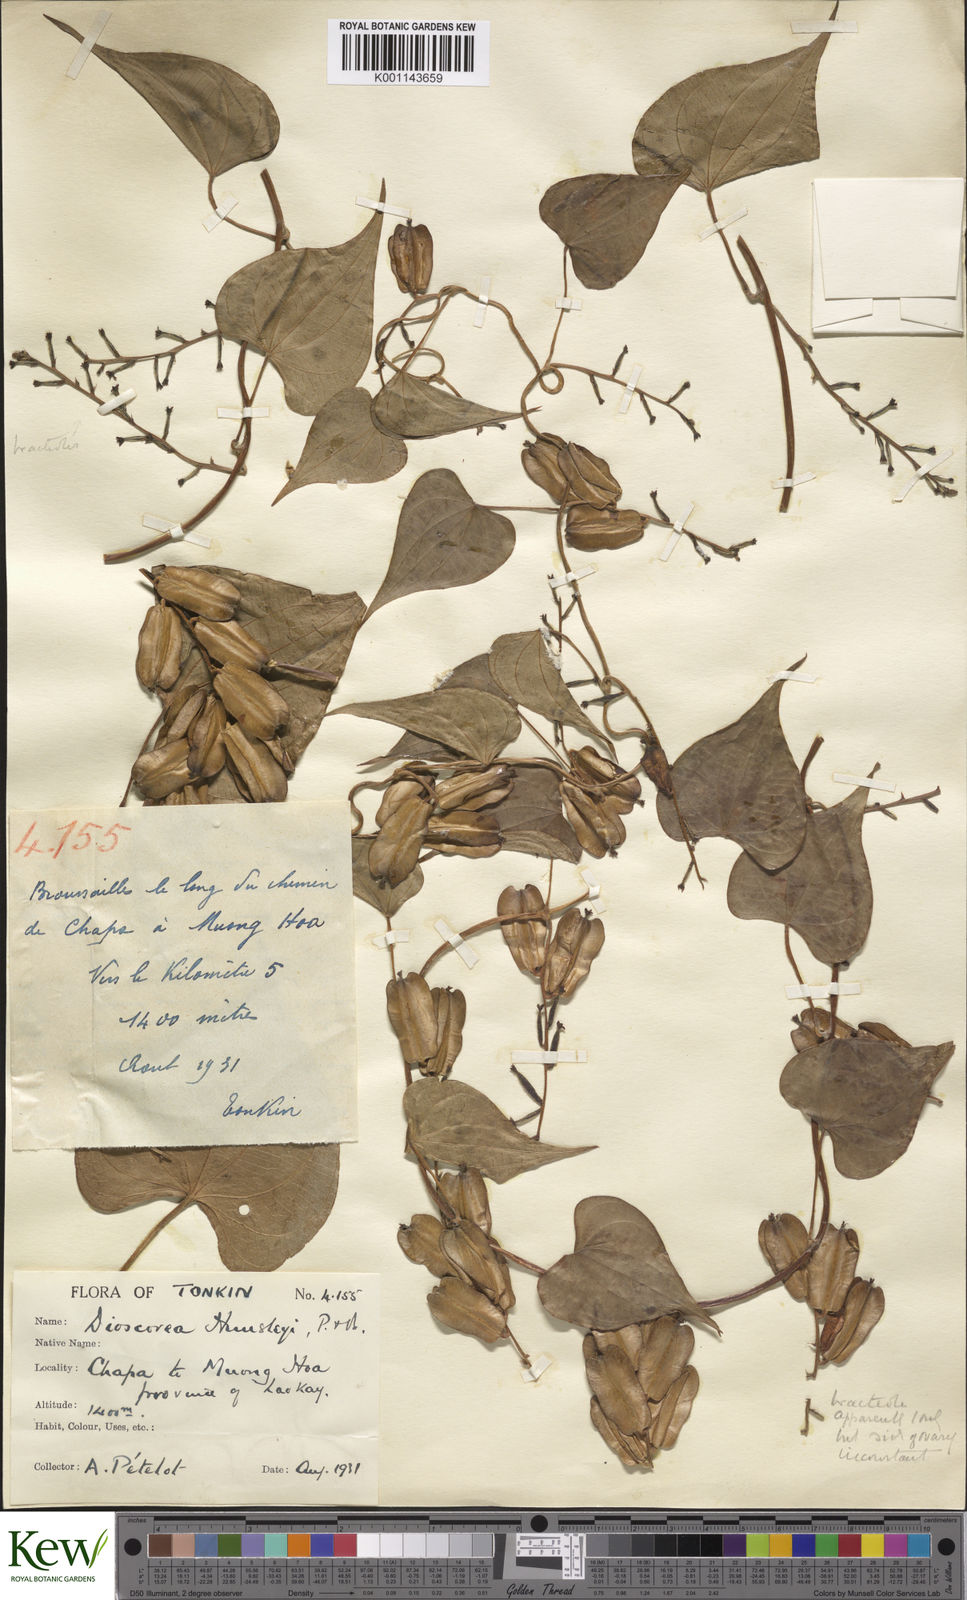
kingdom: Plantae
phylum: Tracheophyta
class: Liliopsida
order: Dioscoreales
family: Dioscoreaceae
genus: Dioscorea
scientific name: Dioscorea hemsleyi
